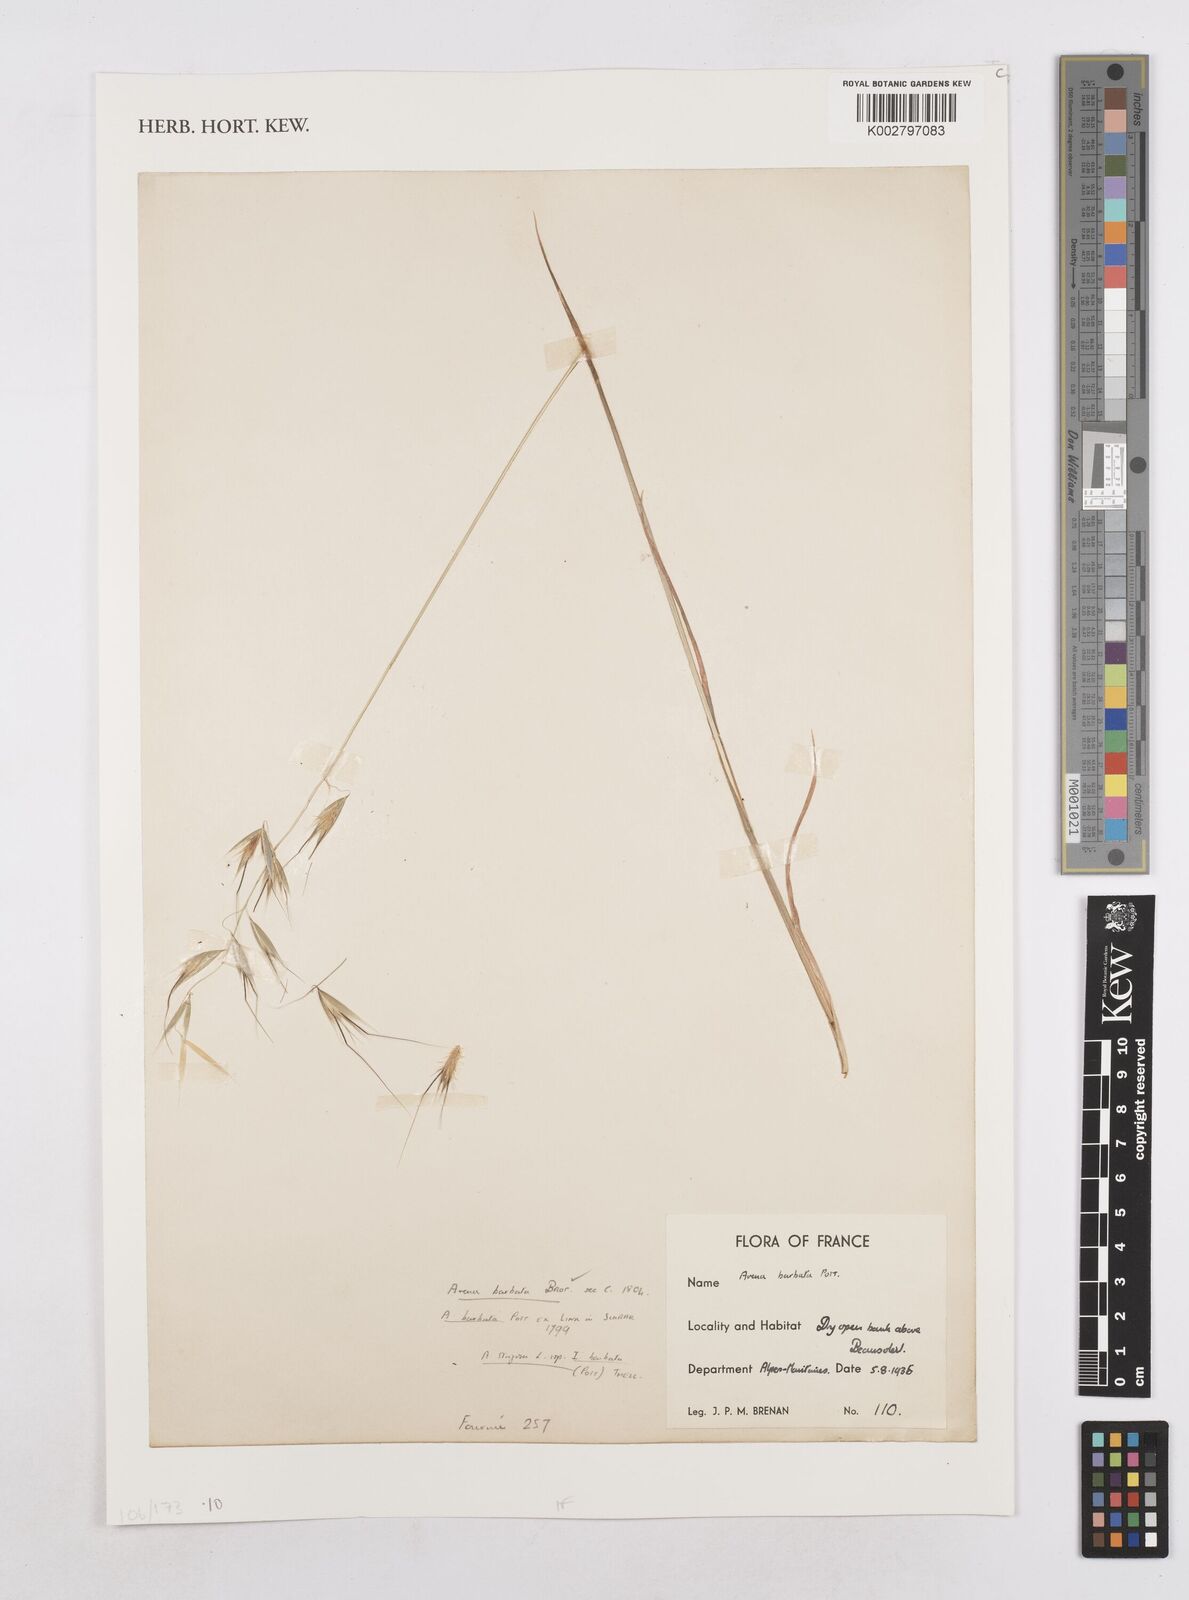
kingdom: Plantae
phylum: Tracheophyta
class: Liliopsida
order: Poales
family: Poaceae
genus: Avena
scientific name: Avena
